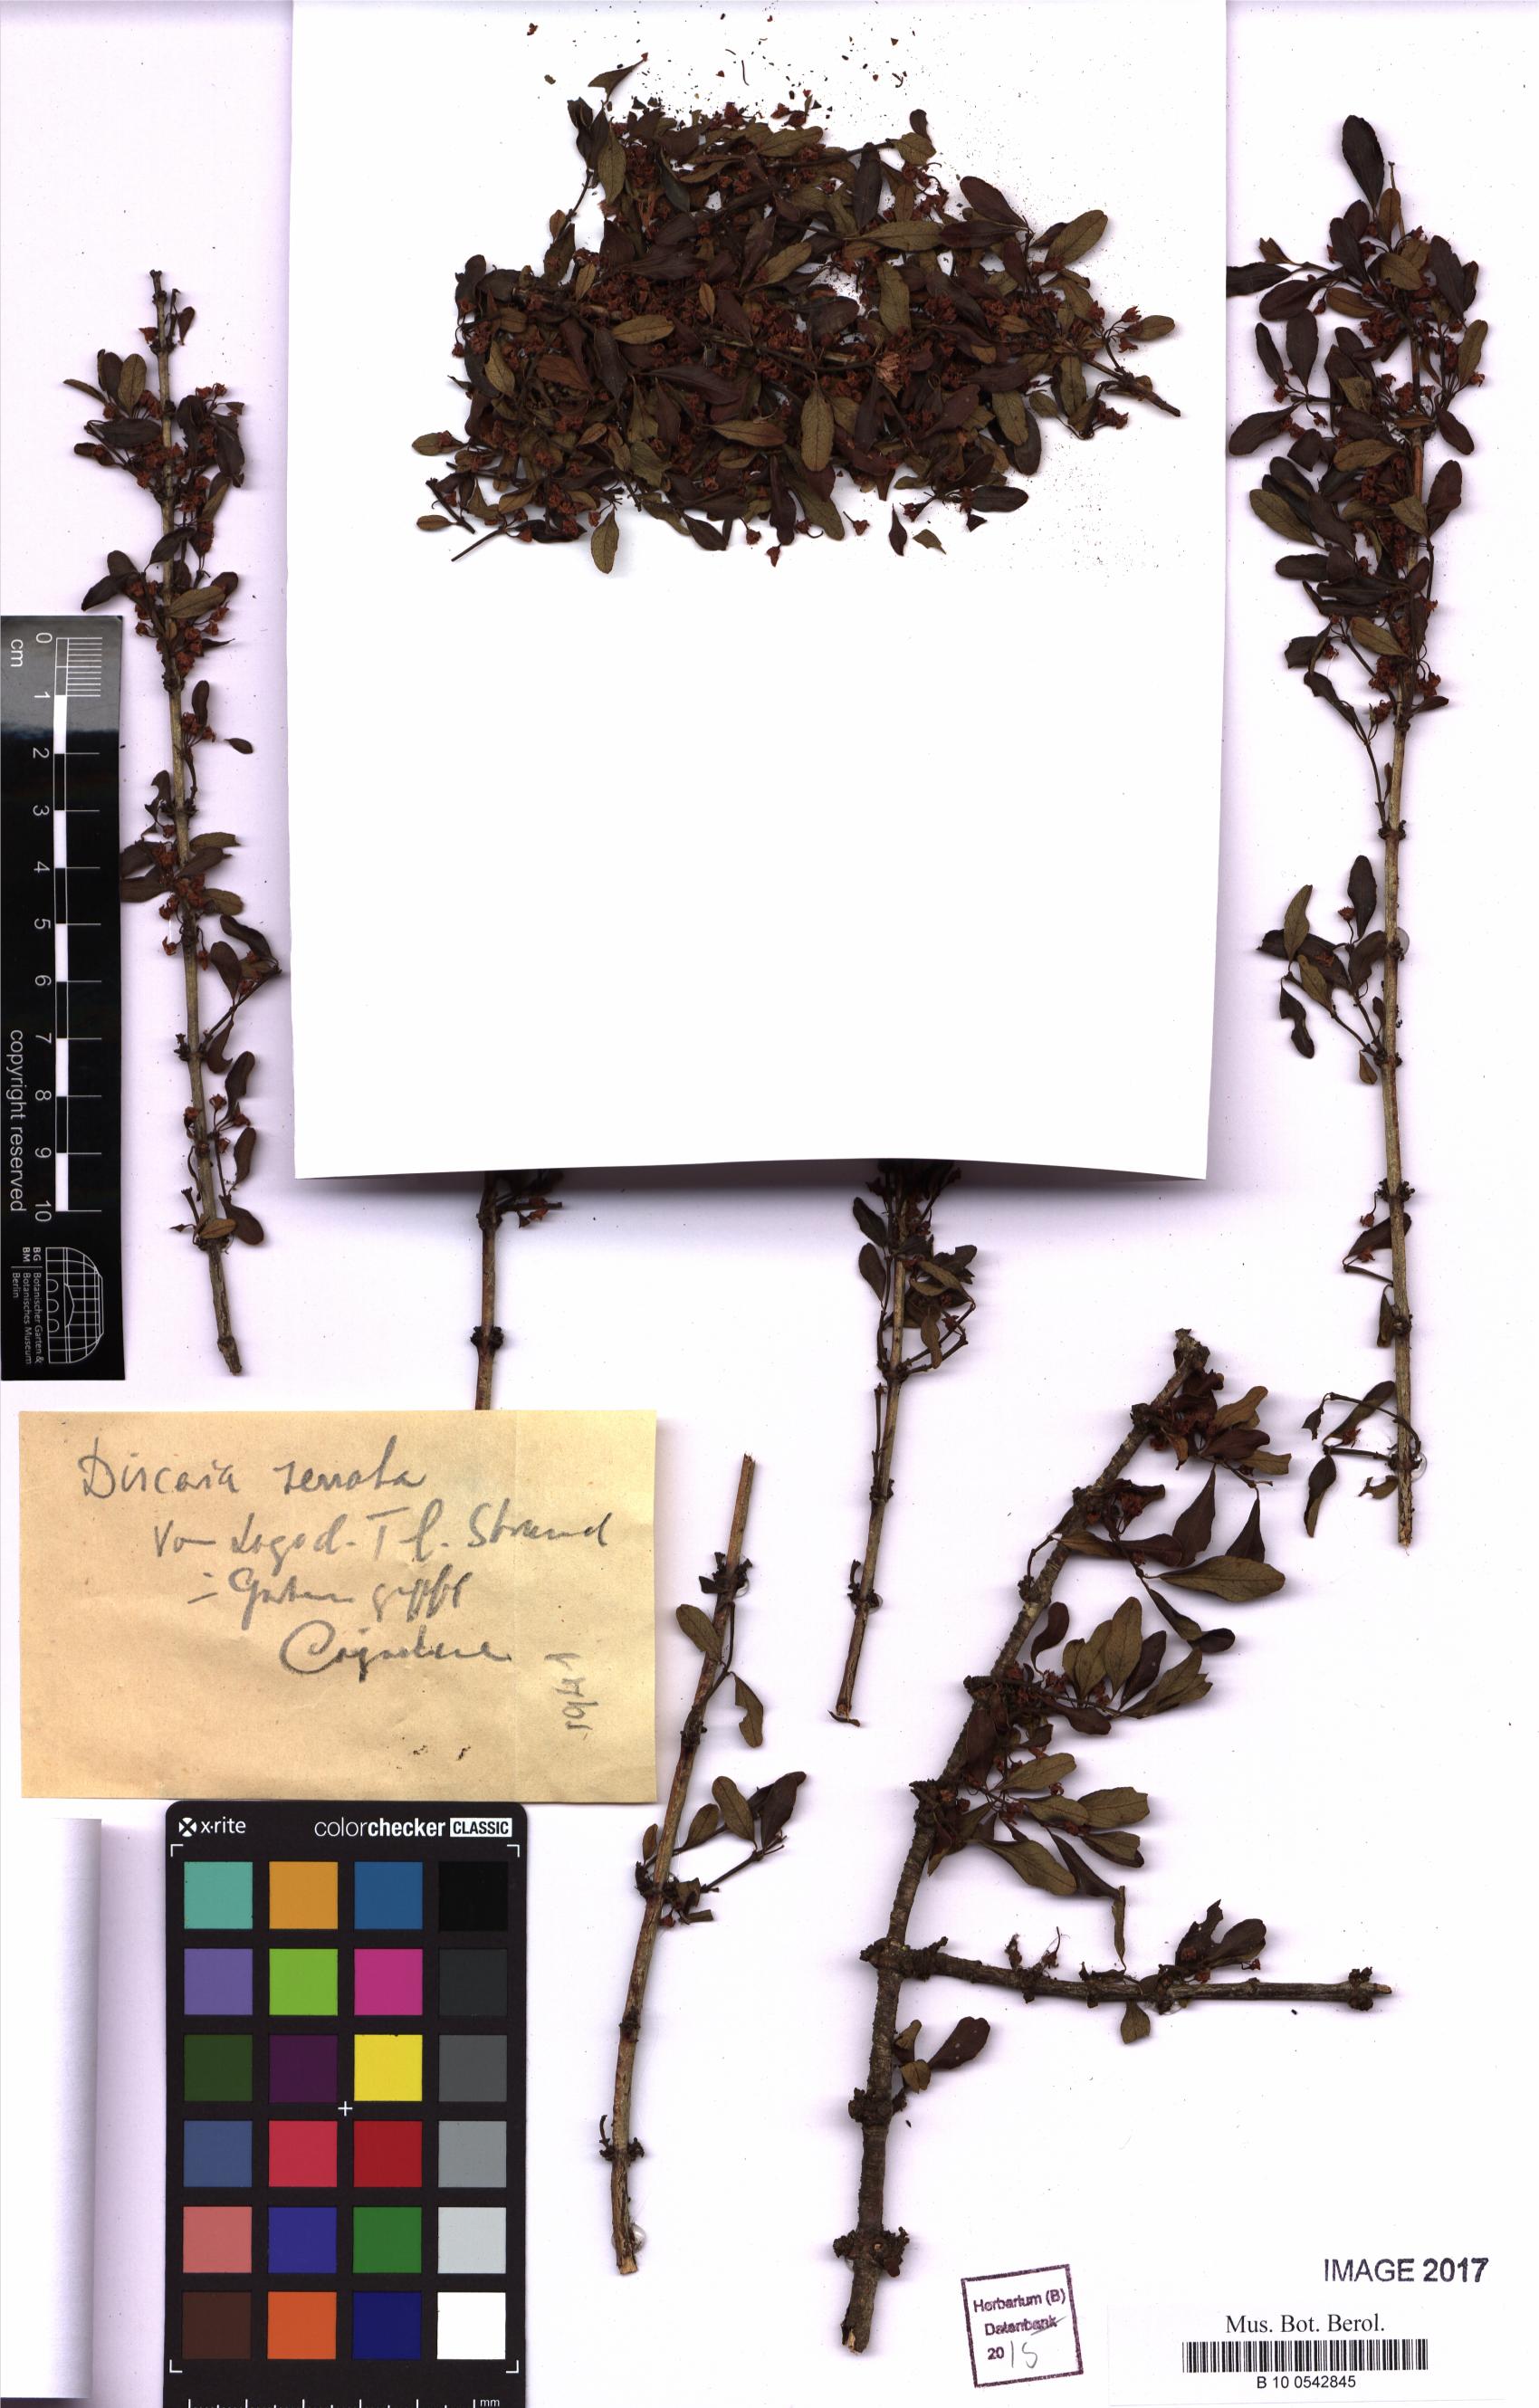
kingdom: Plantae
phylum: Tracheophyta
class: Magnoliopsida
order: Rosales
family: Rhamnaceae
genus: Discaria
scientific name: Discaria serratifolia
